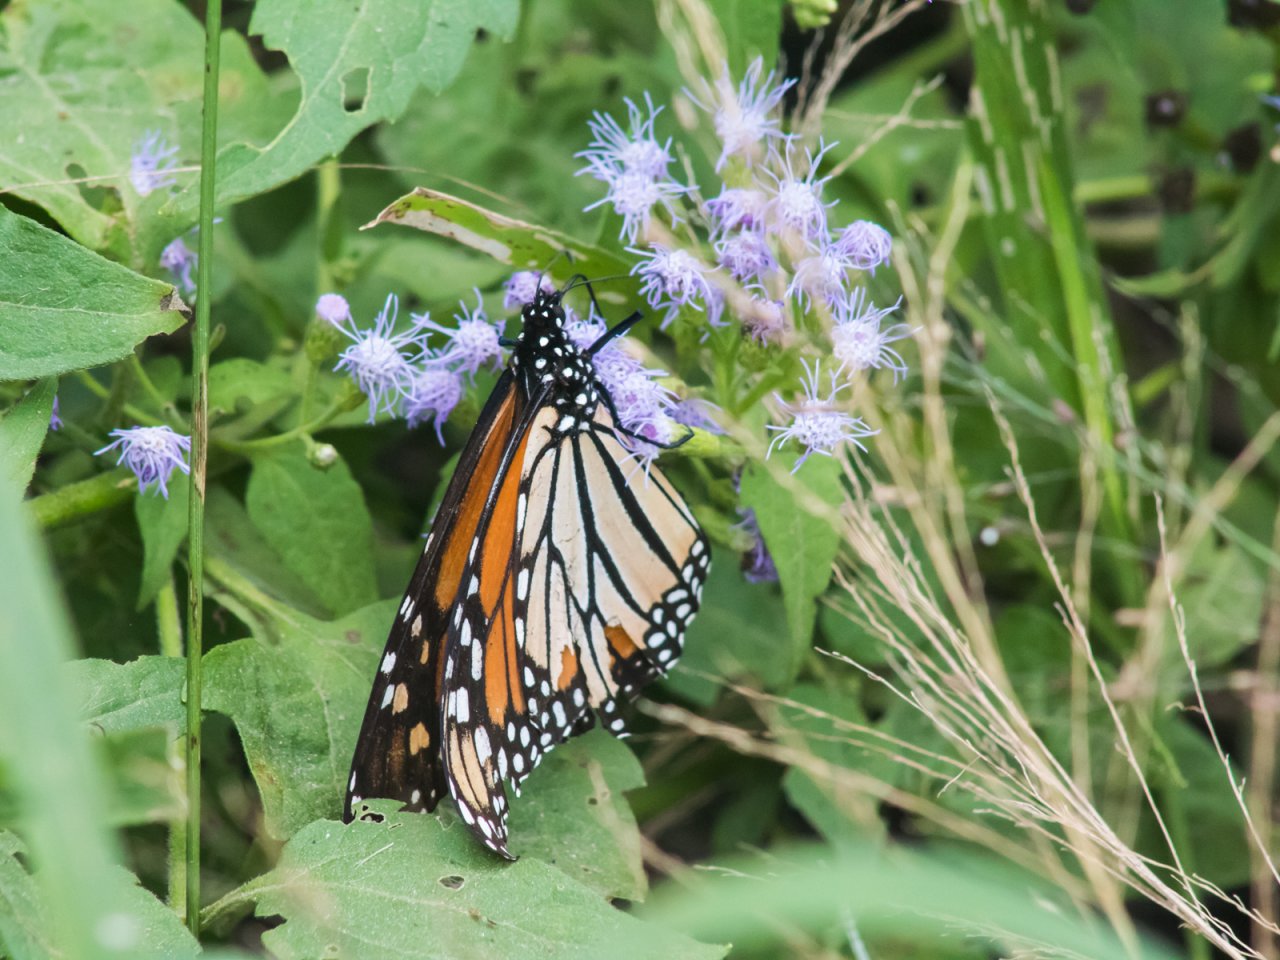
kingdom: Animalia
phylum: Arthropoda
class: Insecta
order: Lepidoptera
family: Nymphalidae
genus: Danaus
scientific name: Danaus plexippus
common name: Monarch
